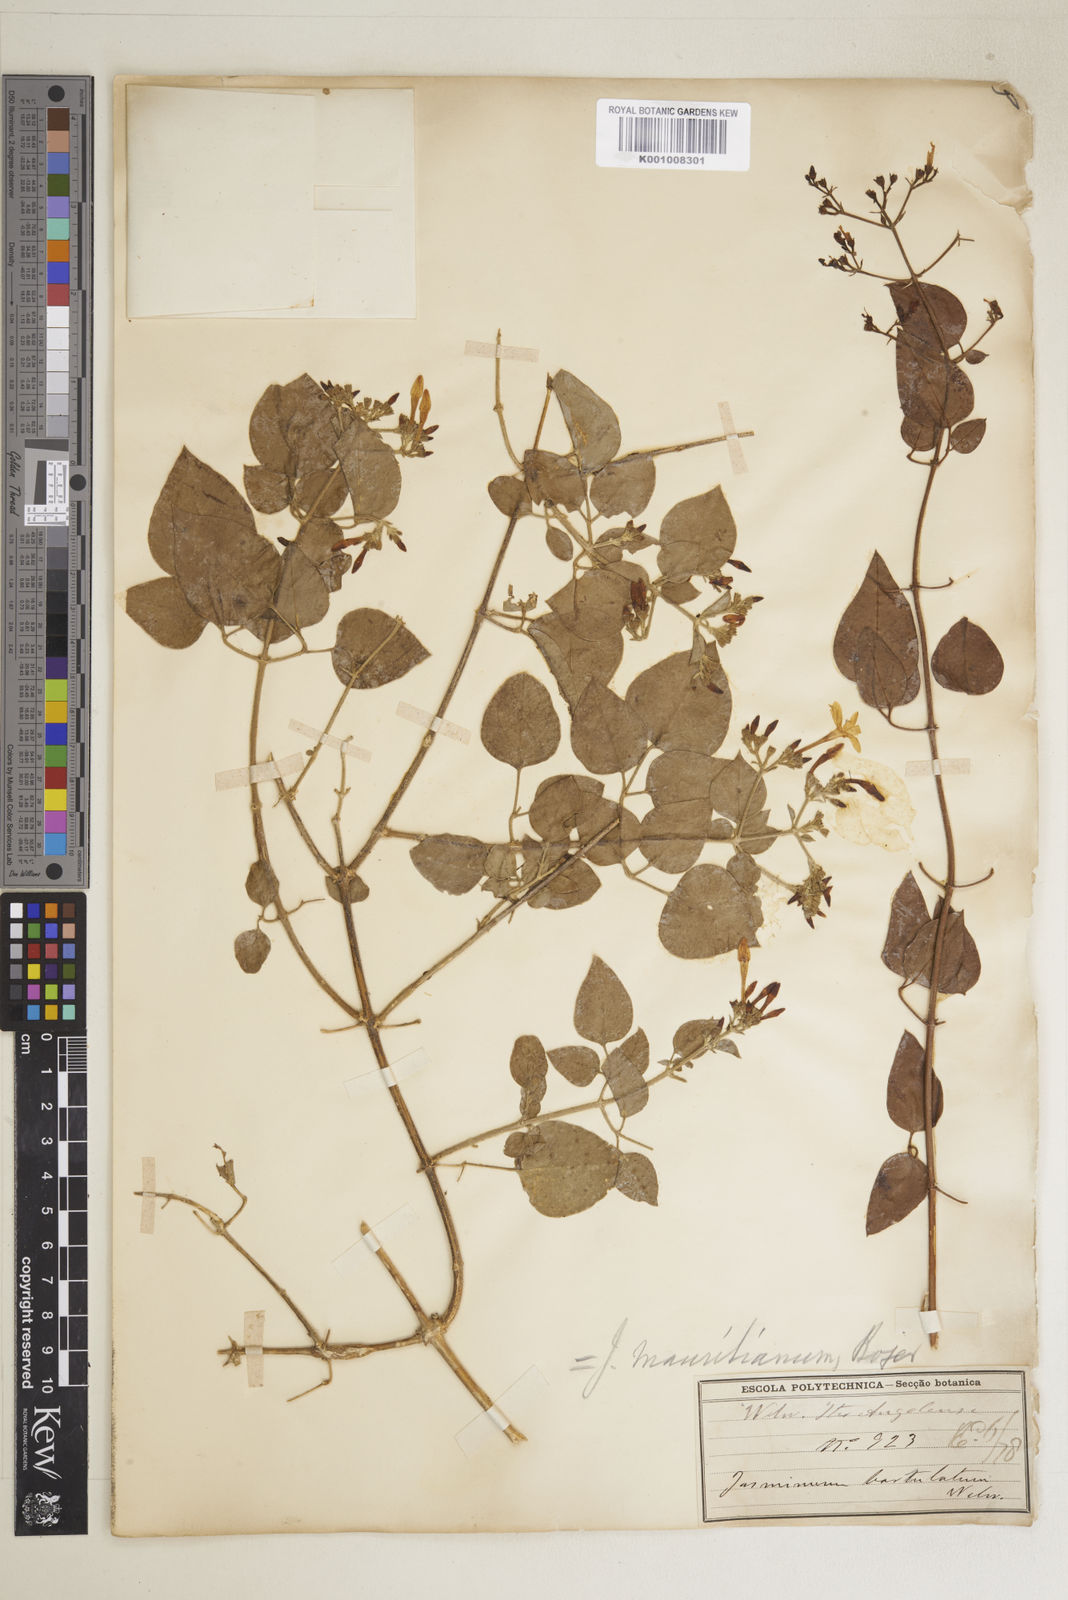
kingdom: Plantae
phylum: Tracheophyta
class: Magnoliopsida
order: Lamiales
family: Oleaceae
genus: Jasminum
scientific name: Jasminum fluminense
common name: Brazilian jasmine
